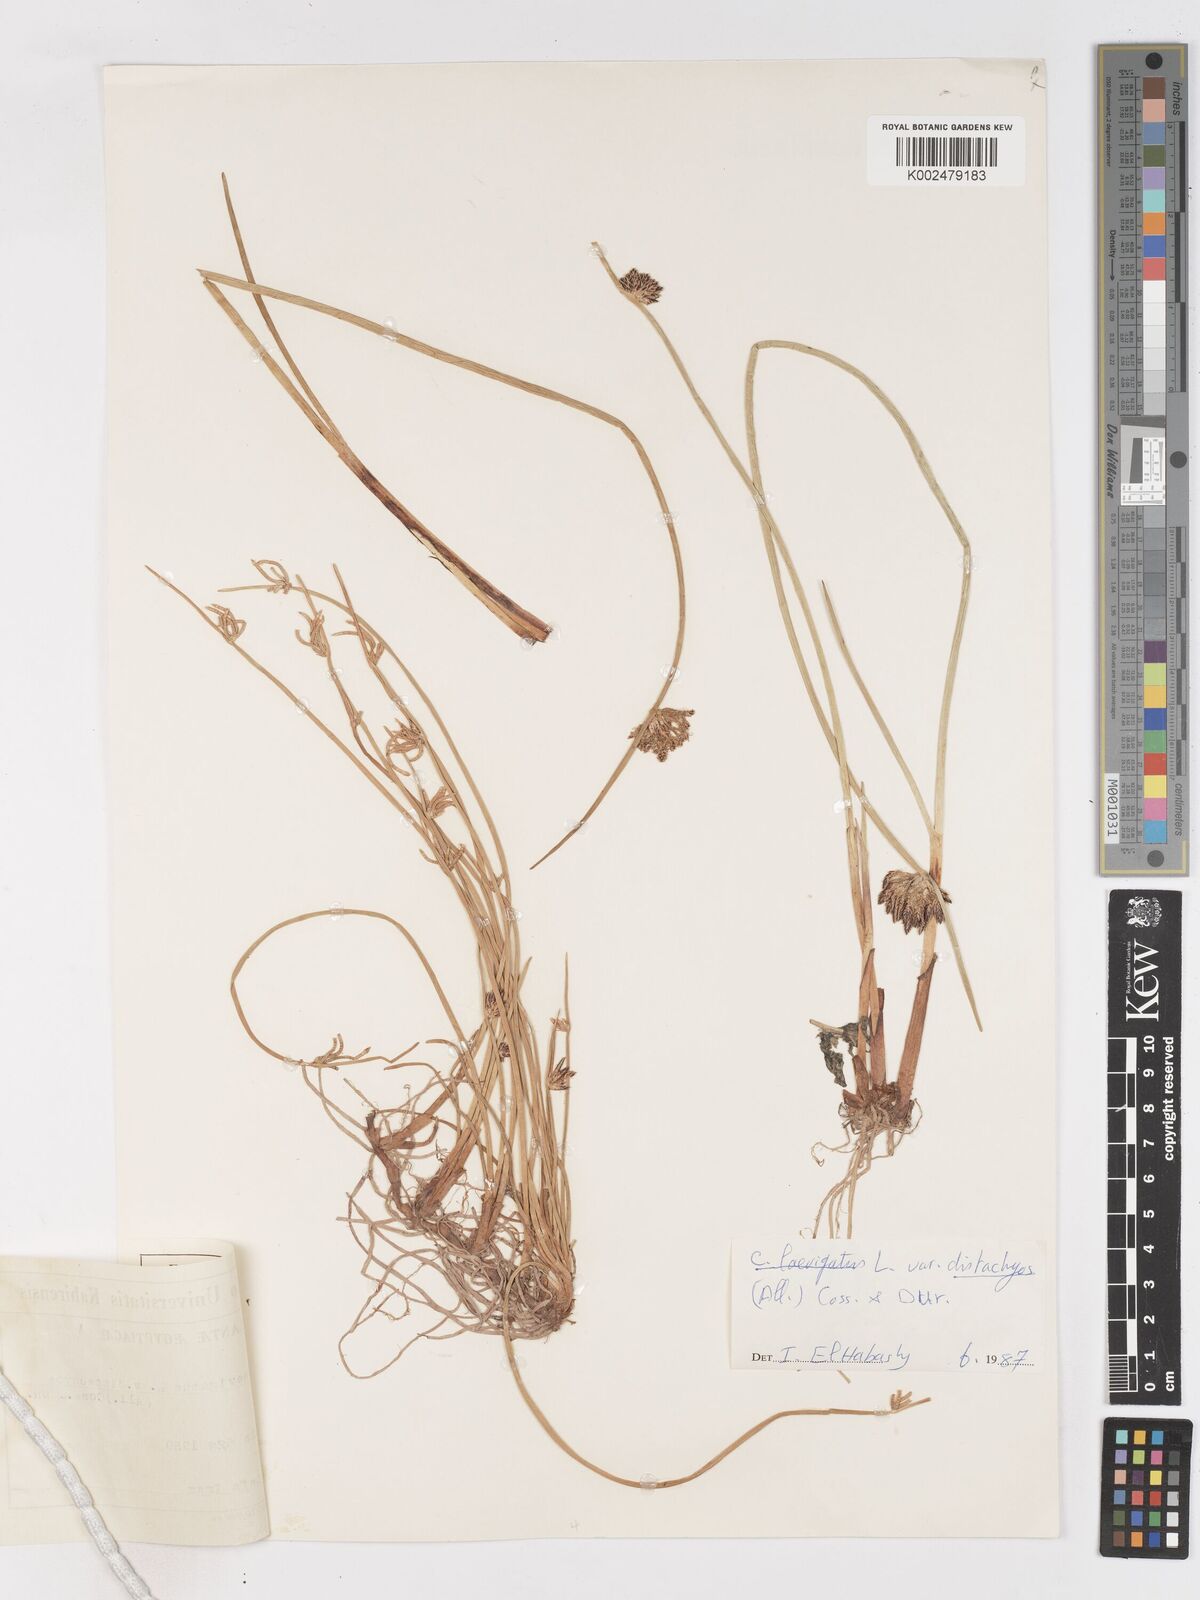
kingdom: Plantae
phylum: Tracheophyta
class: Liliopsida
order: Poales
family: Cyperaceae
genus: Cyperus
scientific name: Cyperus laevigatus
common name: Smooth flat sedge
